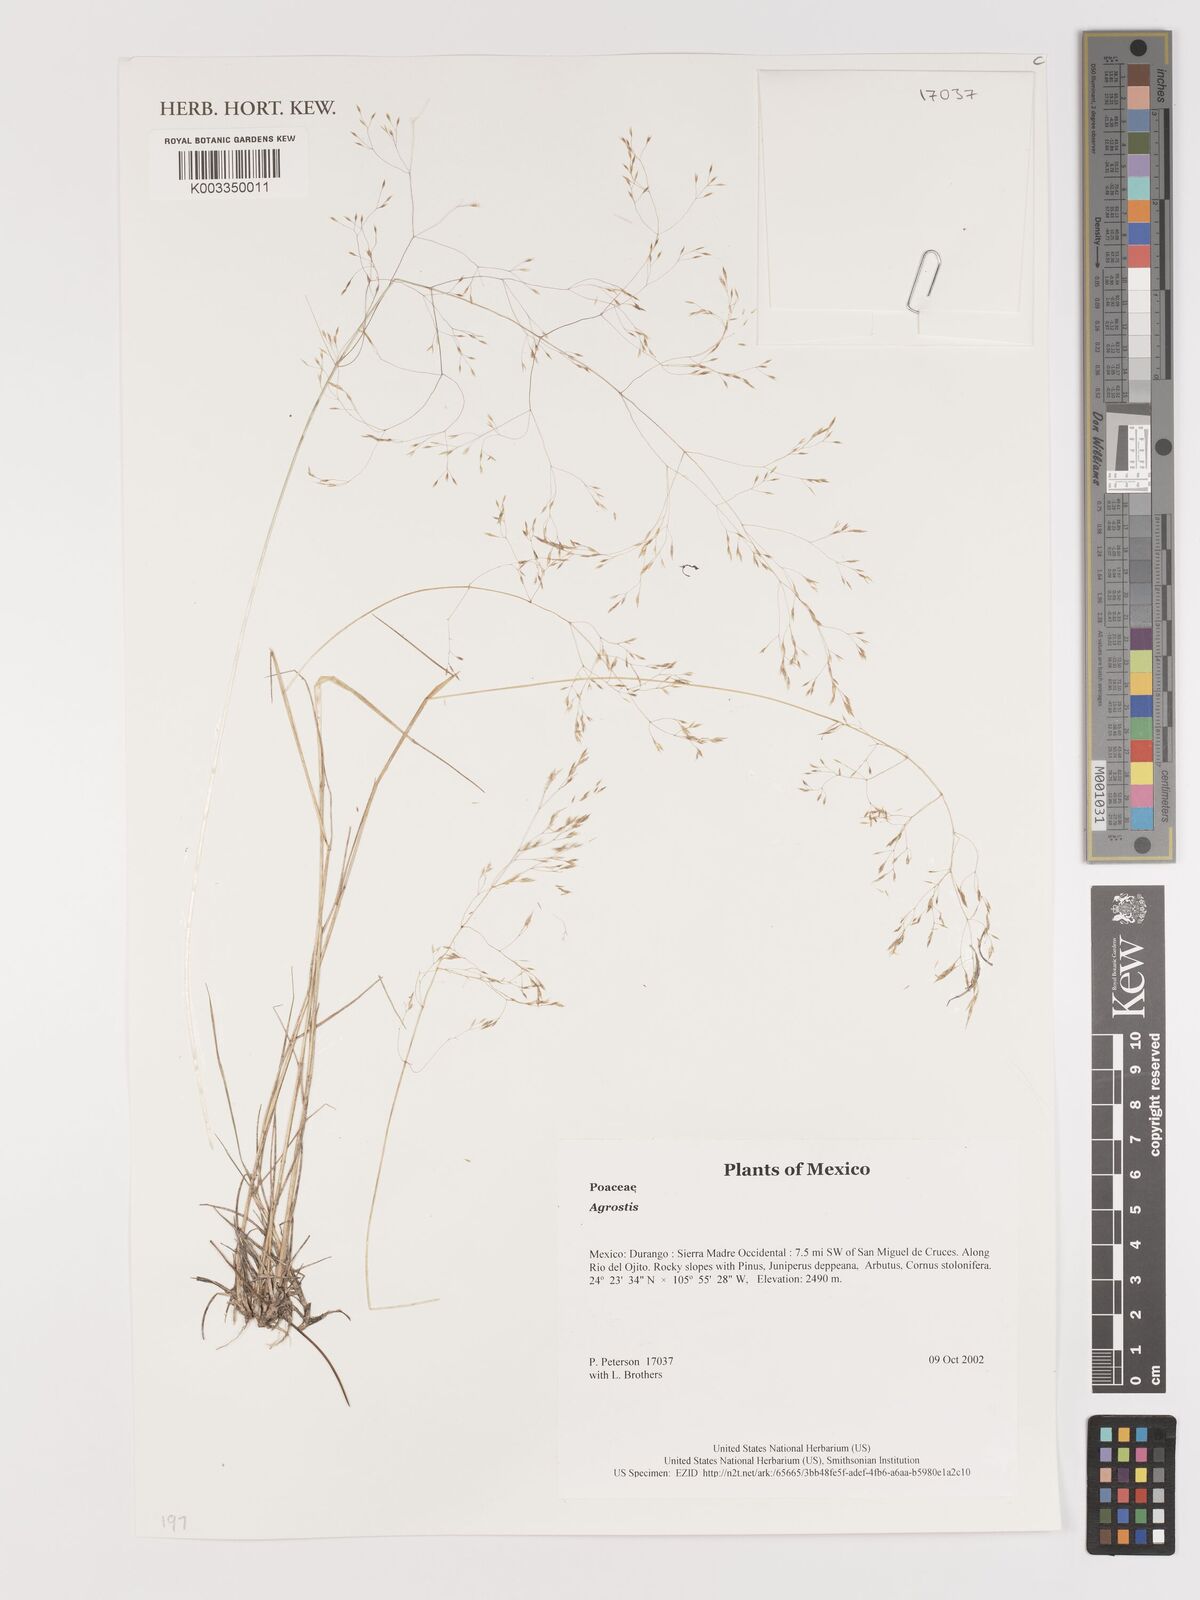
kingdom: Plantae
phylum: Tracheophyta
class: Liliopsida
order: Poales
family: Poaceae
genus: Agrostis
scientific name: Agrostis
